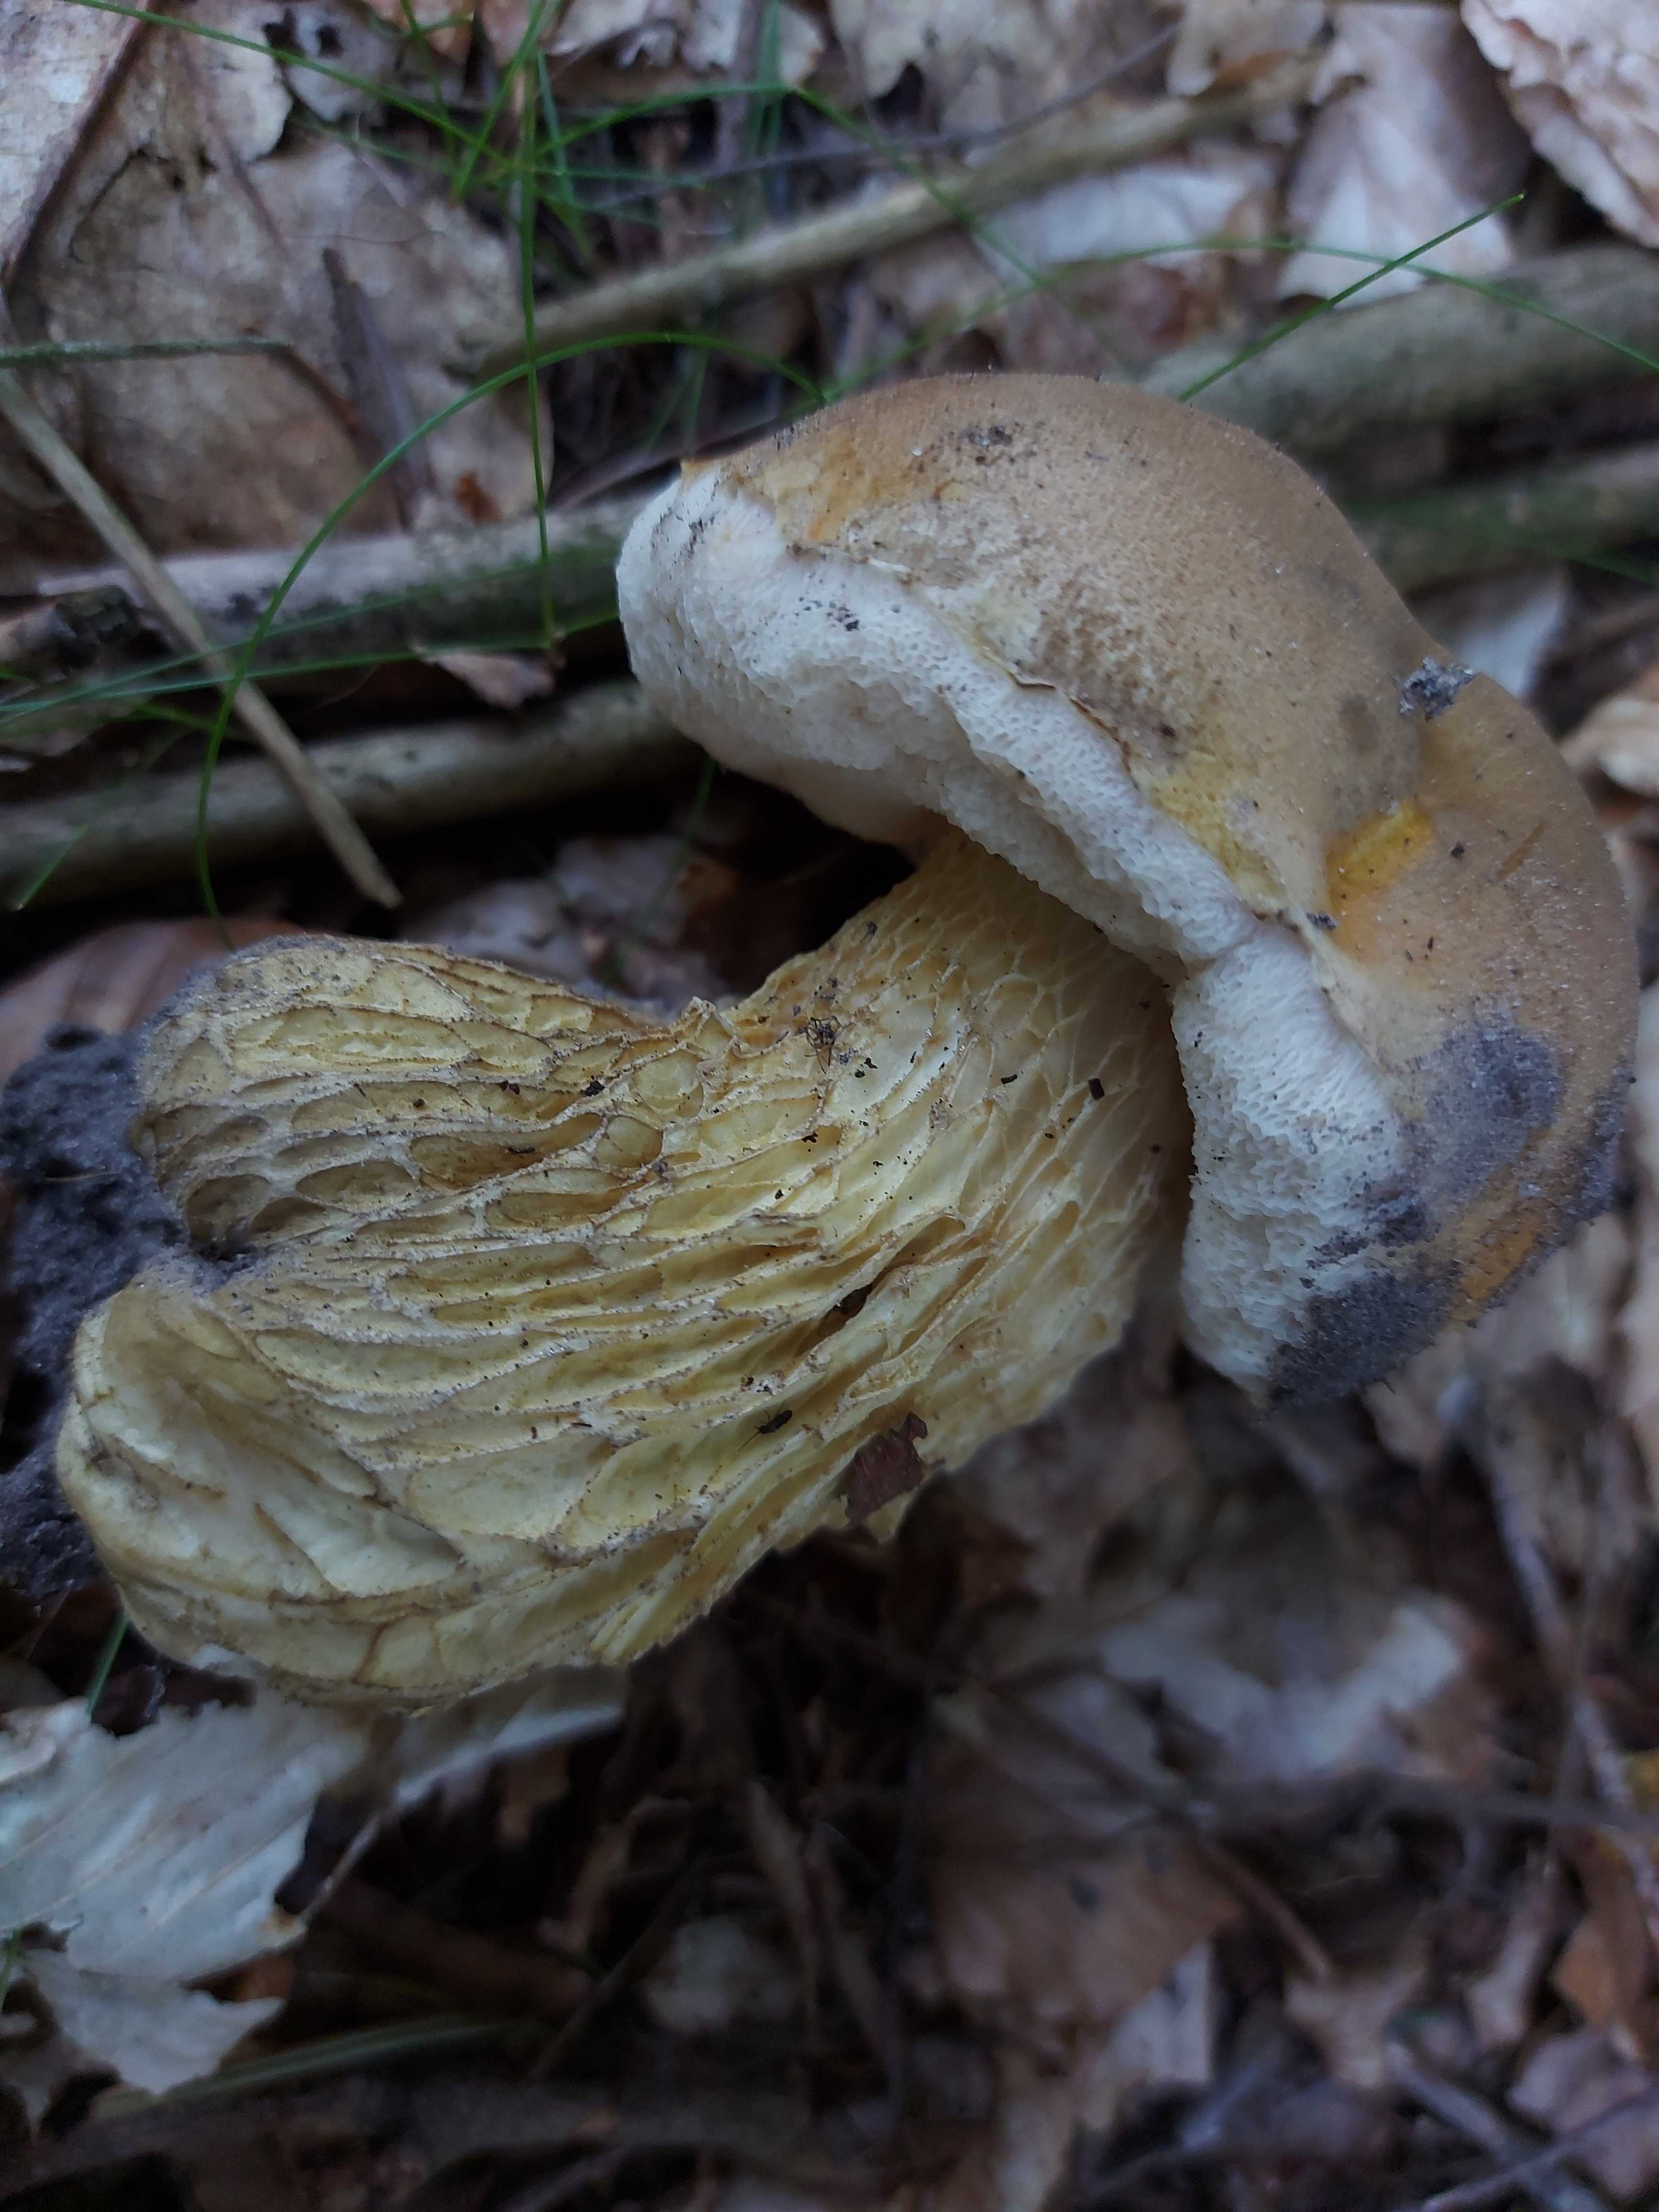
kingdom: Fungi
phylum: Basidiomycota
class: Agaricomycetes
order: Boletales
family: Boletaceae
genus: Tylopilus
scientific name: Tylopilus felleus
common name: galderørhat
